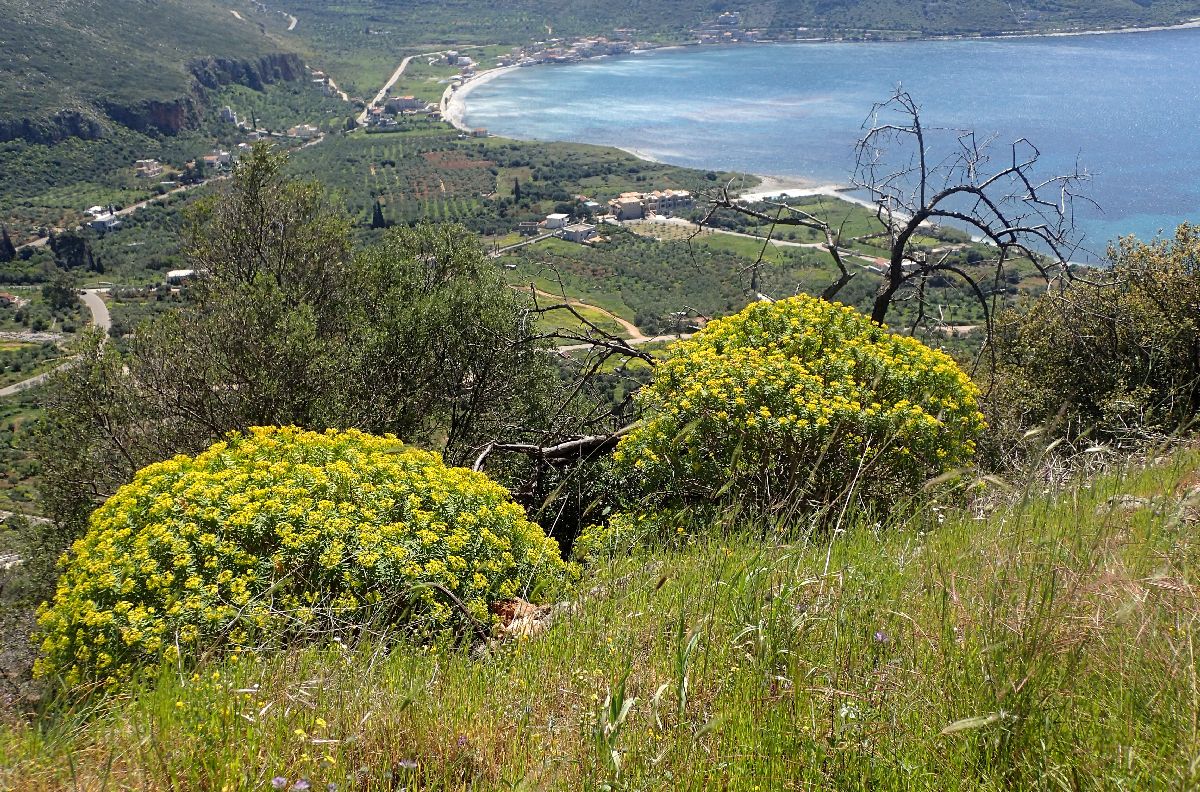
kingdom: Plantae
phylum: Tracheophyta
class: Magnoliopsida
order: Malpighiales
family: Euphorbiaceae
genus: Euphorbia
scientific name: Euphorbia dendroides
